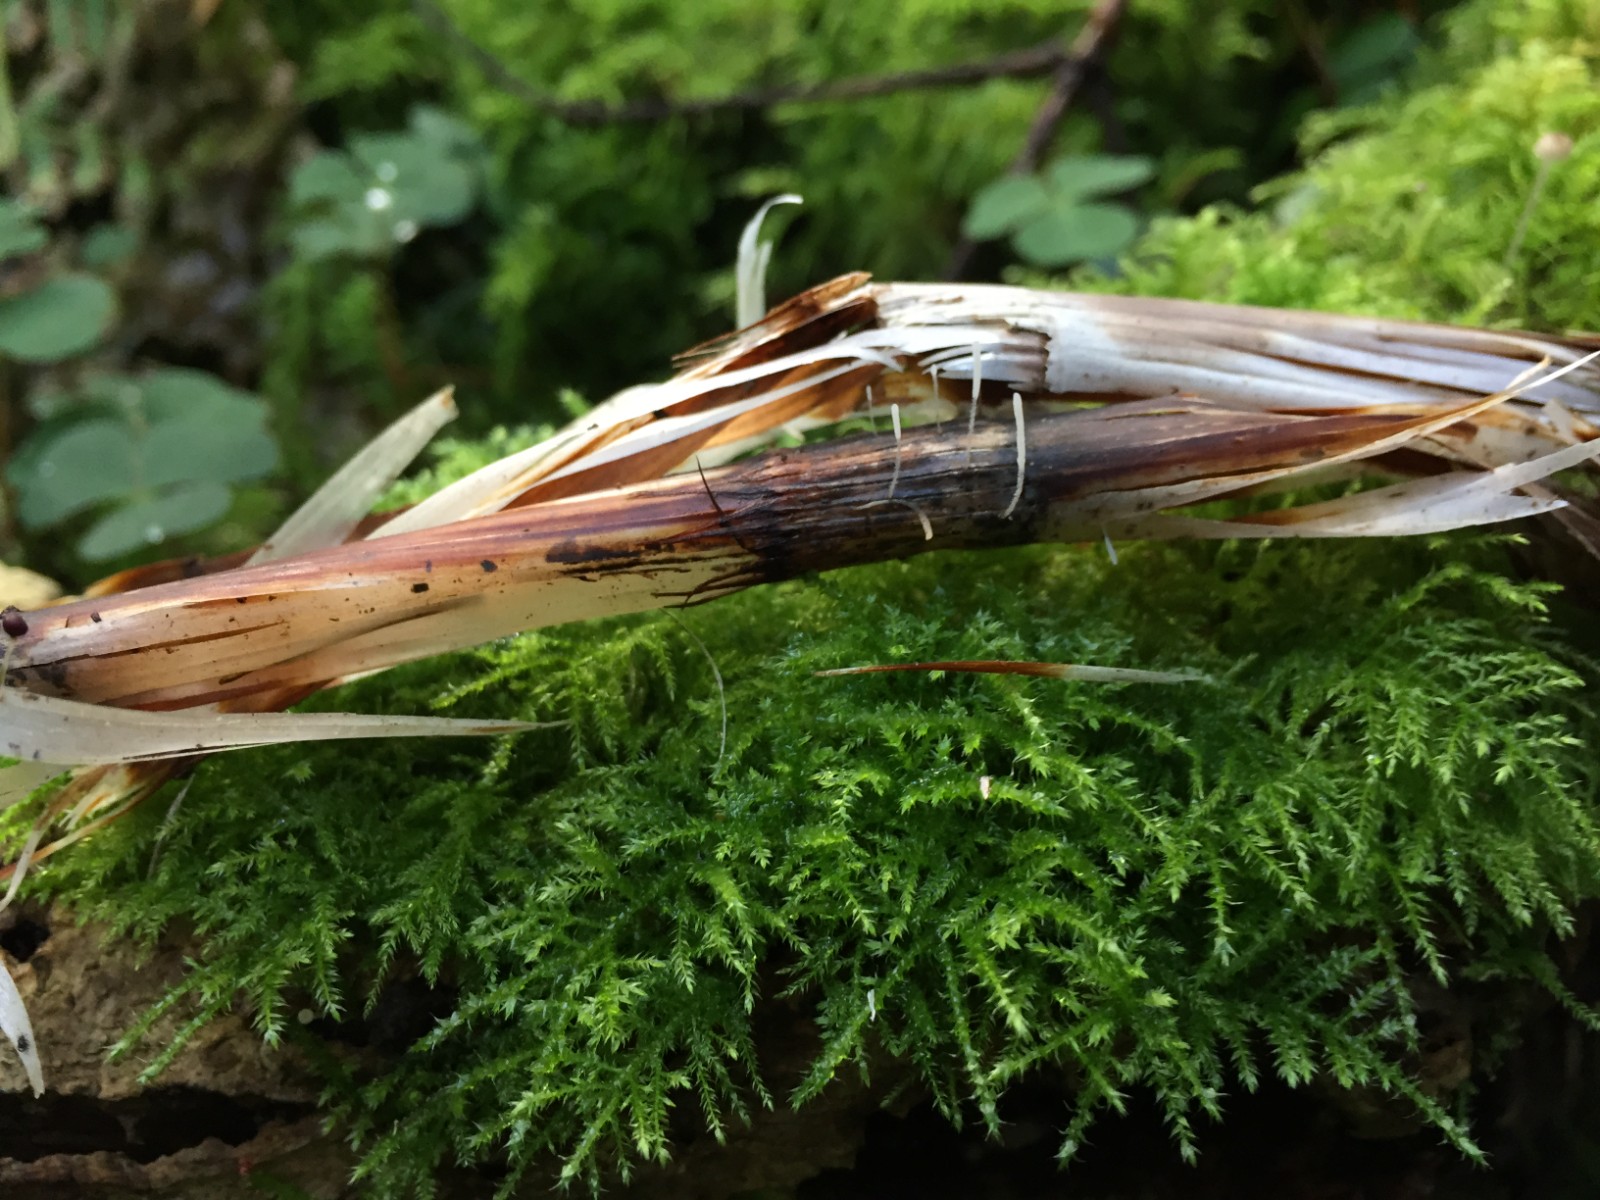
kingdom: Fungi
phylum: Basidiomycota
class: Agaricomycetes
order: Agaricales
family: Typhulaceae
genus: Typhula
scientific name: Typhula trifolii
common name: kløver-trådkølle
